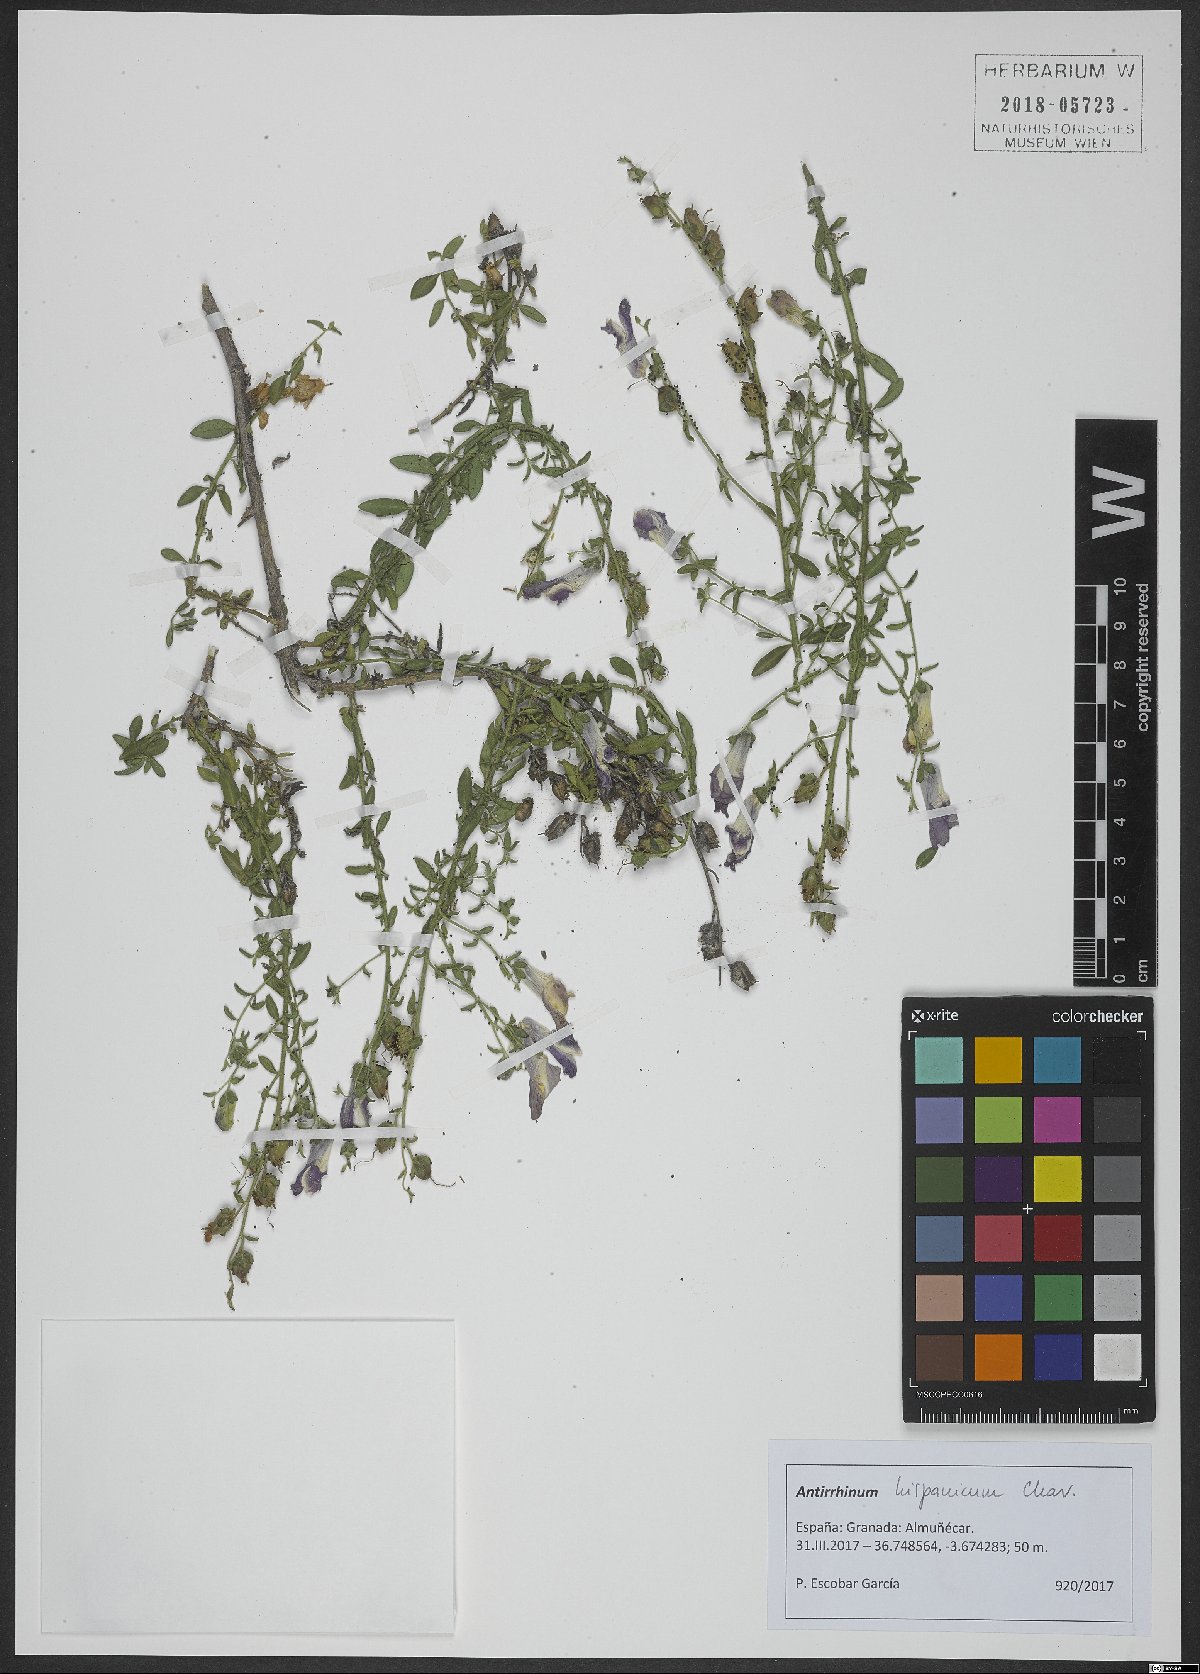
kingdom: Plantae
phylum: Tracheophyta
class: Magnoliopsida
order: Lamiales
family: Plantaginaceae
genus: Antirrhinum
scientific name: Antirrhinum hispanicum
